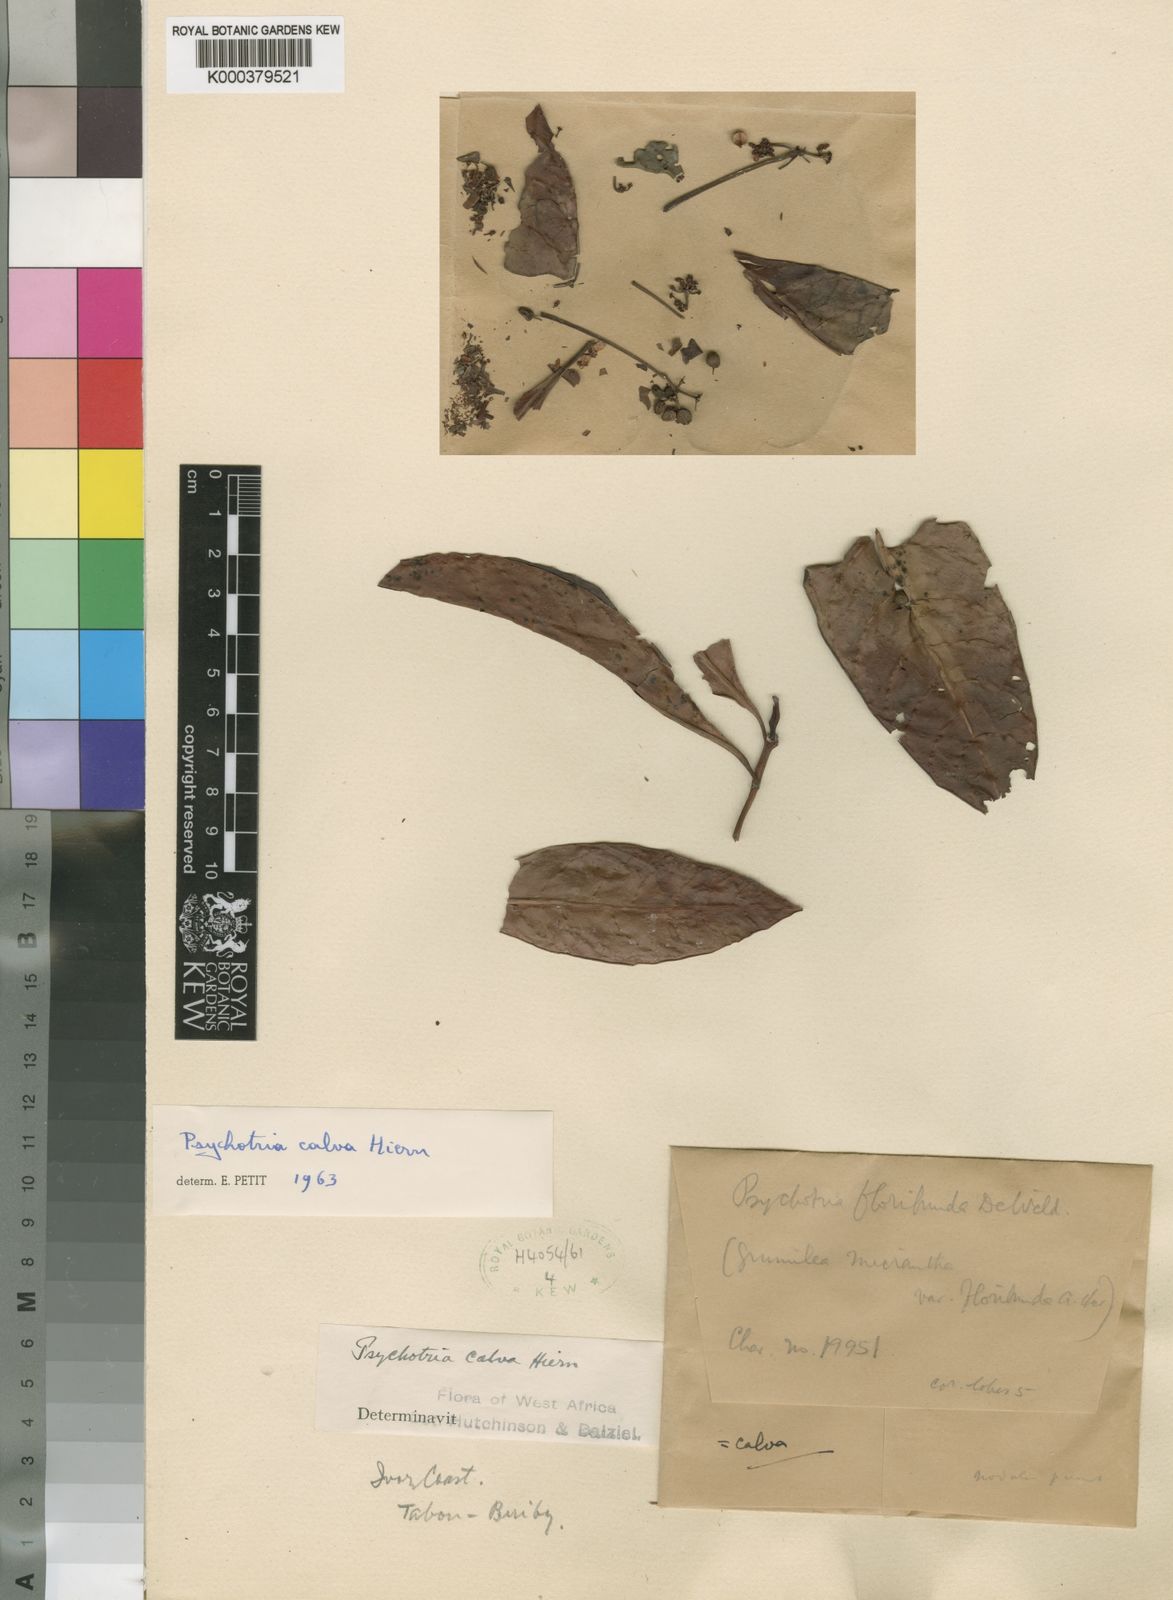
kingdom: Plantae
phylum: Tracheophyta
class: Magnoliopsida
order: Gentianales
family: Rubiaceae
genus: Psychotria
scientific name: Psychotria calva
